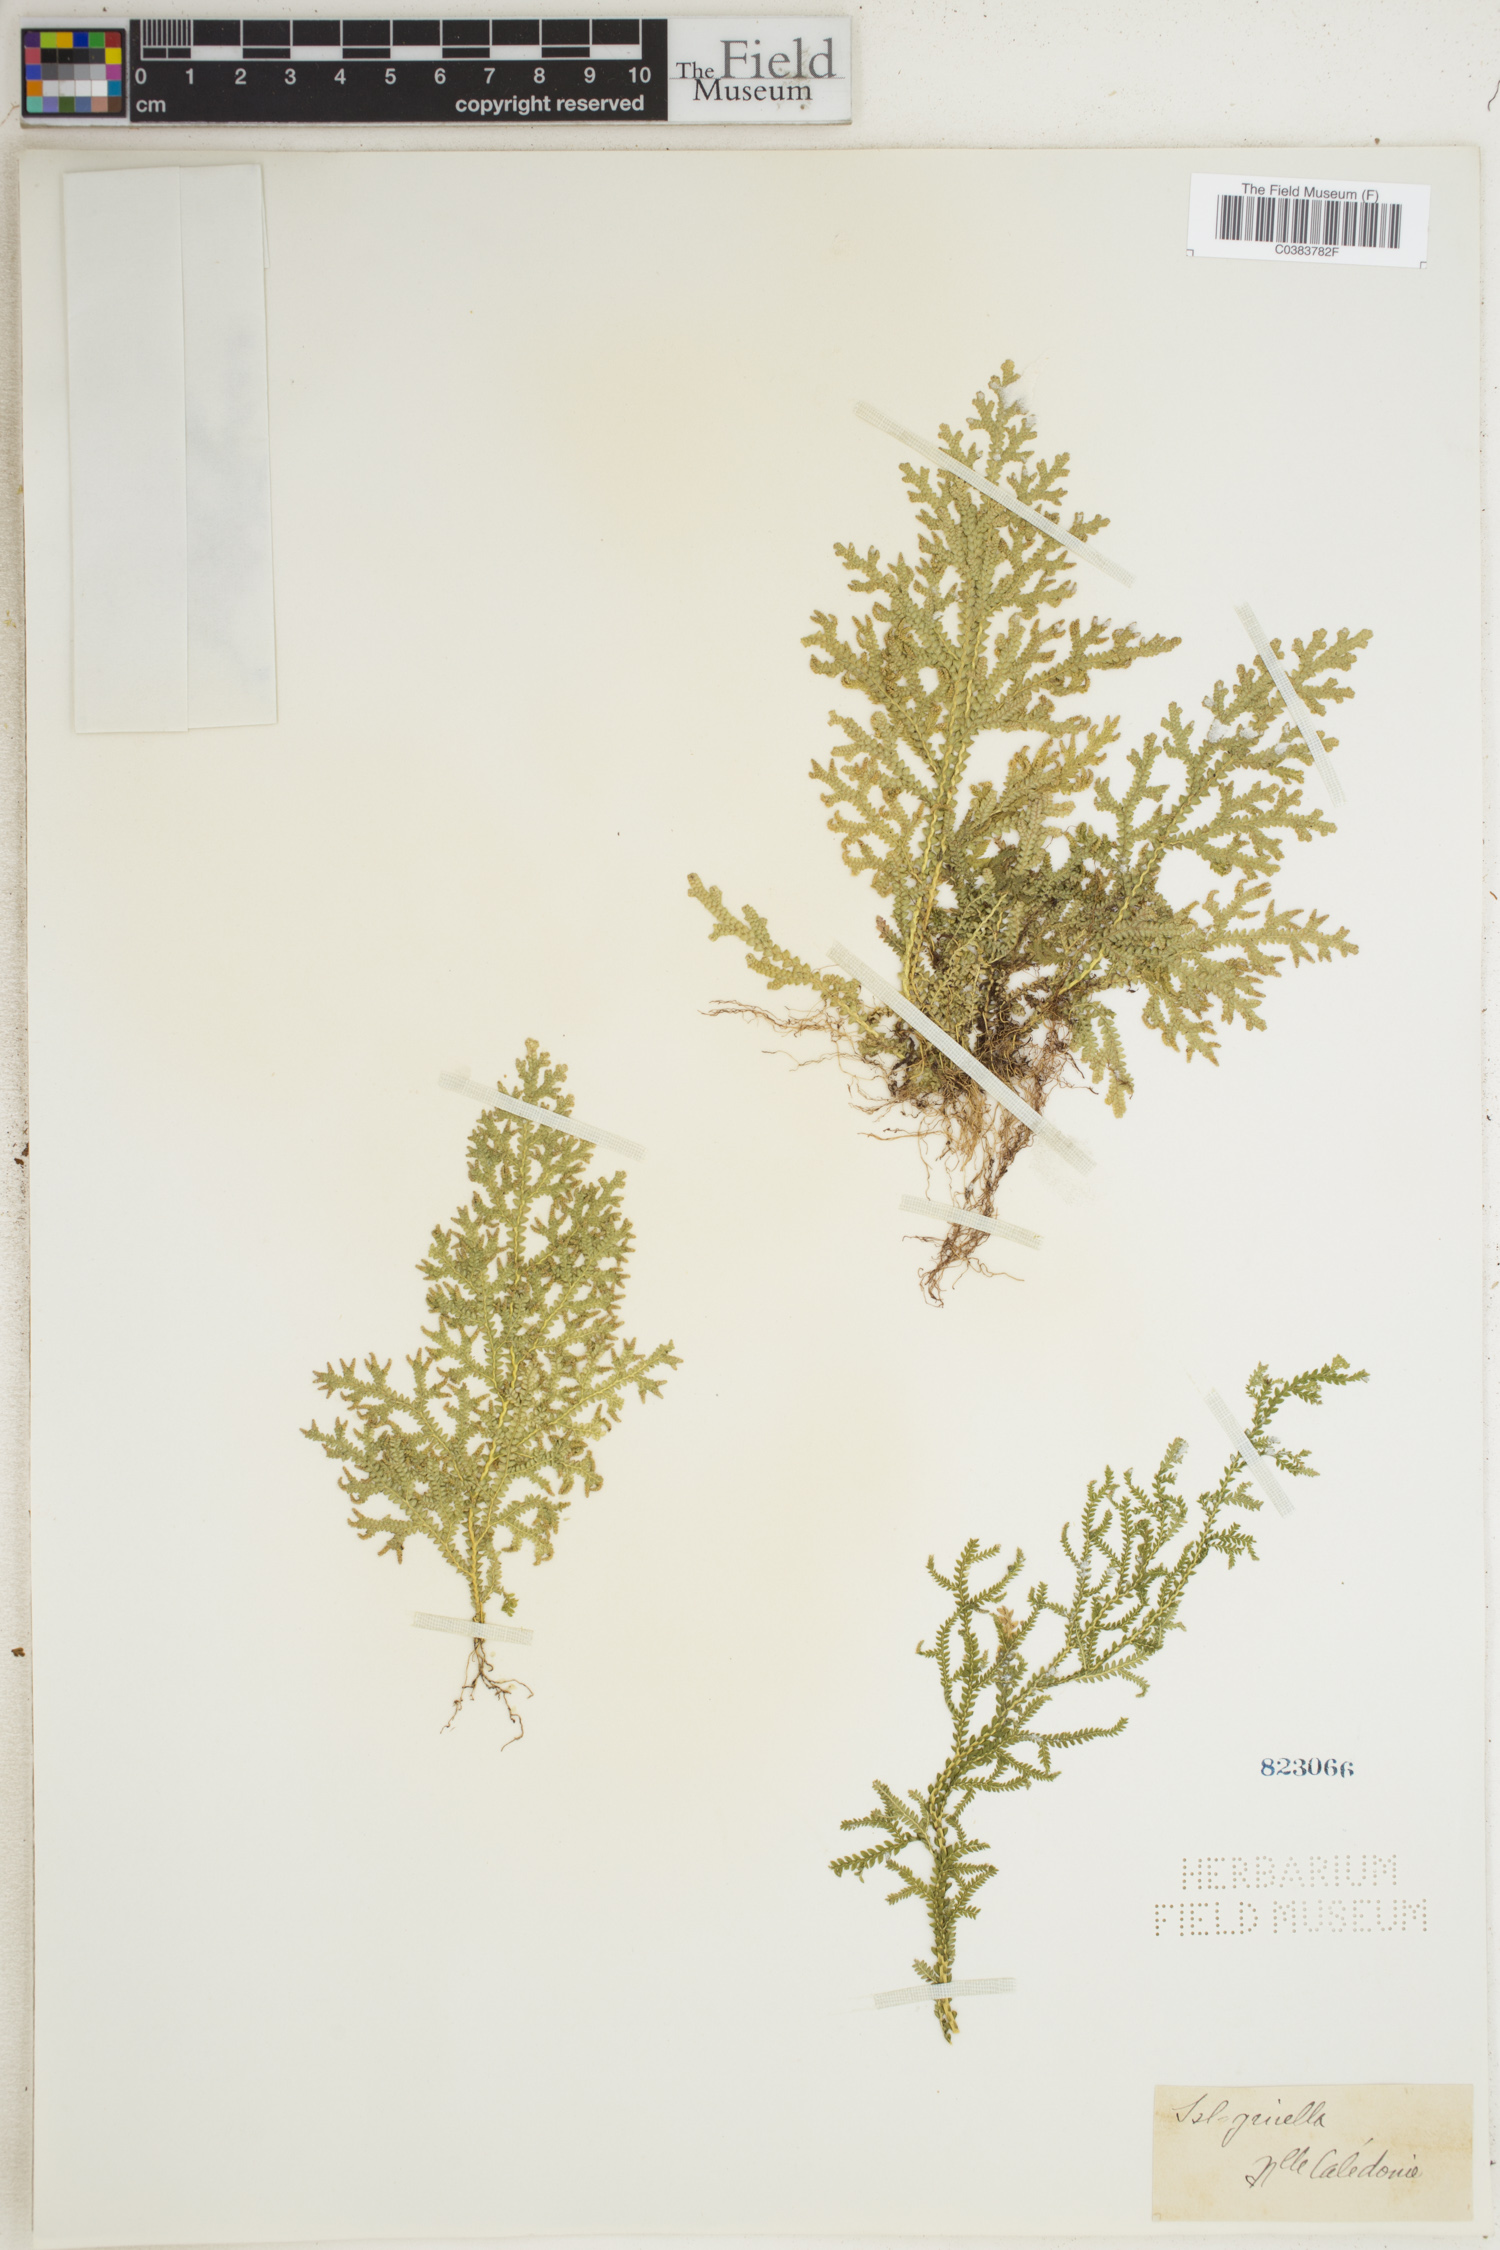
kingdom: Plantae
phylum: Tracheophyta
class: Lycopodiopsida
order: Selaginellales
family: Selaginellaceae
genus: Selaginella
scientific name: Selaginella
